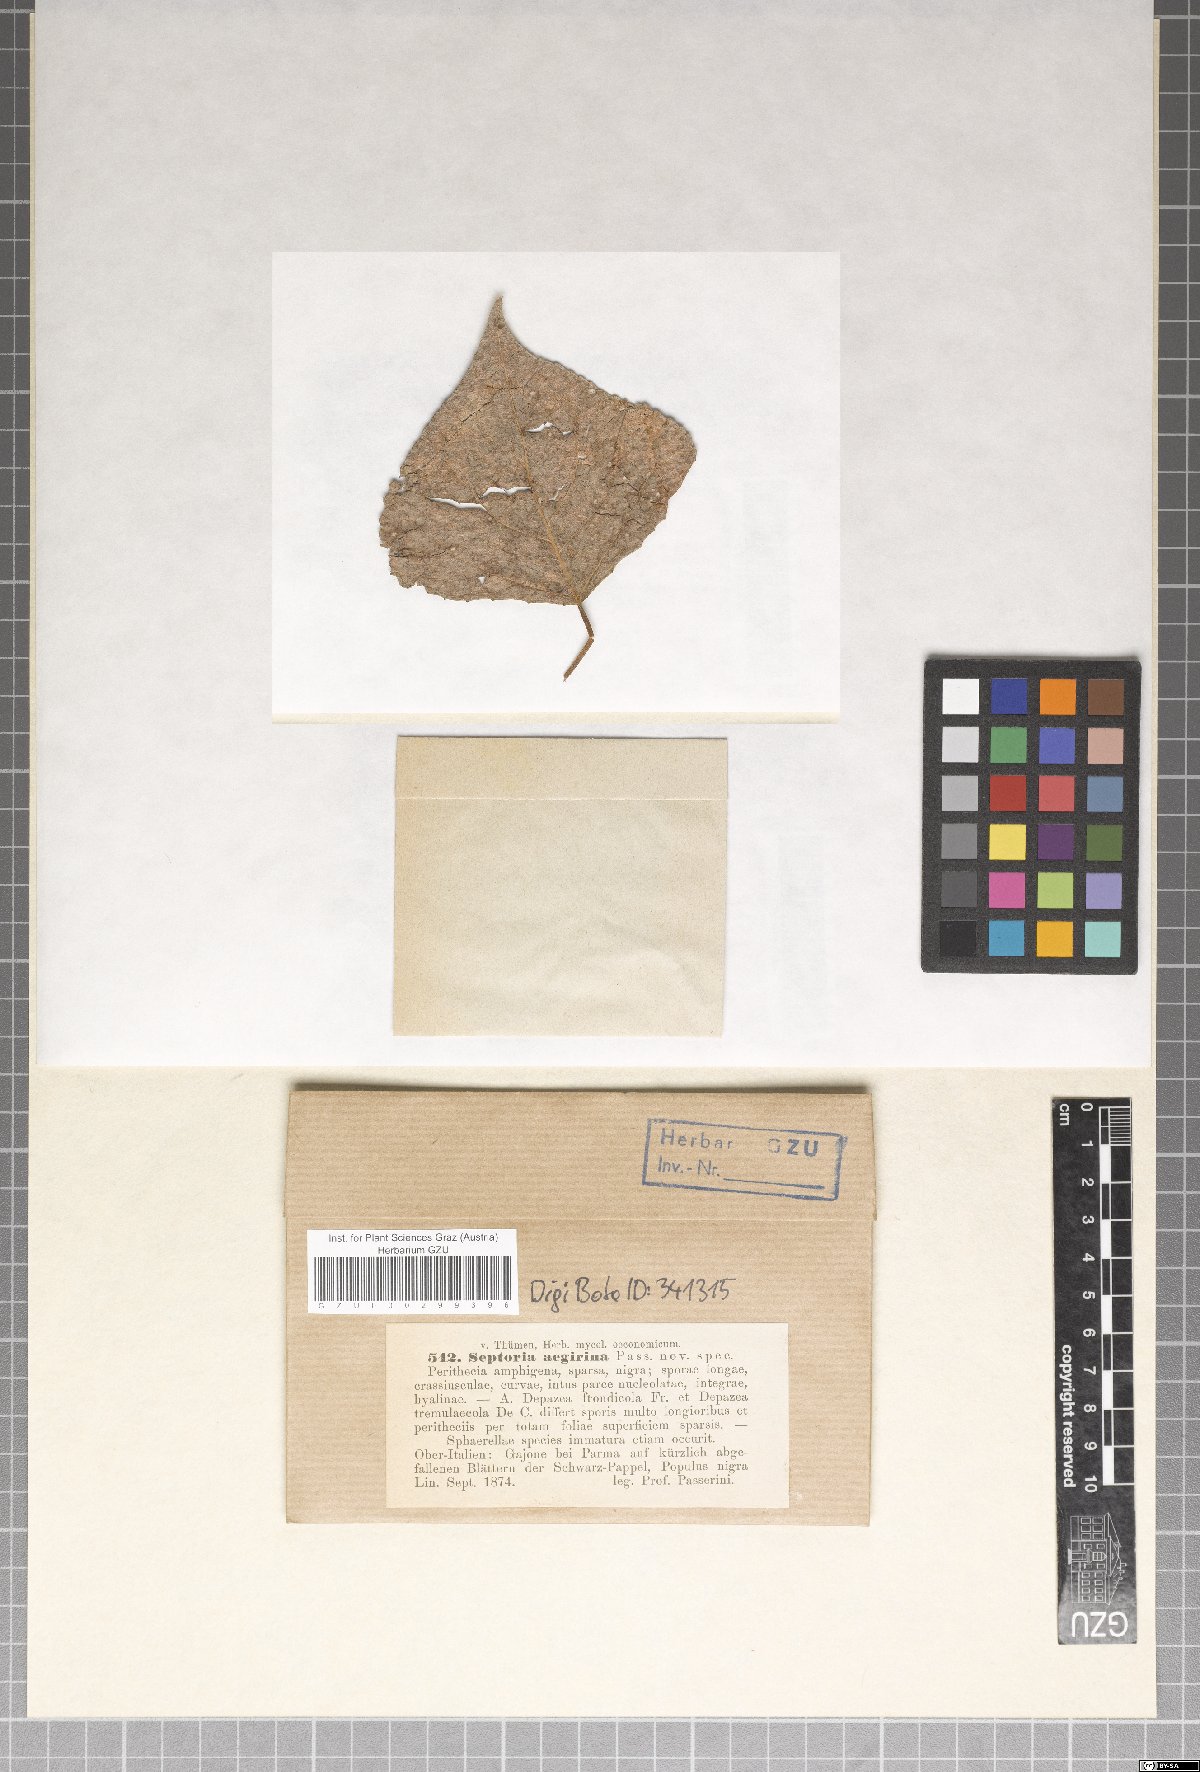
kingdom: Fungi
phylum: Ascomycota
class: Dothideomycetes
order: Mycosphaerellales
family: Mycosphaerellaceae
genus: Septoria
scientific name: Septoria
